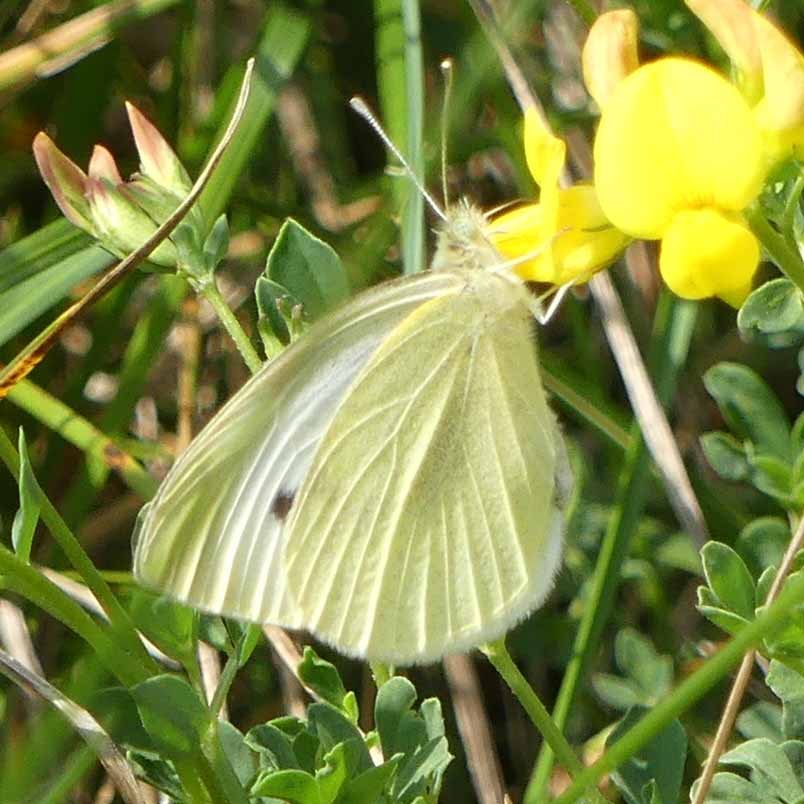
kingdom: Animalia
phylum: Arthropoda
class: Insecta
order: Lepidoptera
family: Pieridae
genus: Pieris
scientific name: Pieris rapae
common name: Cabbage White
